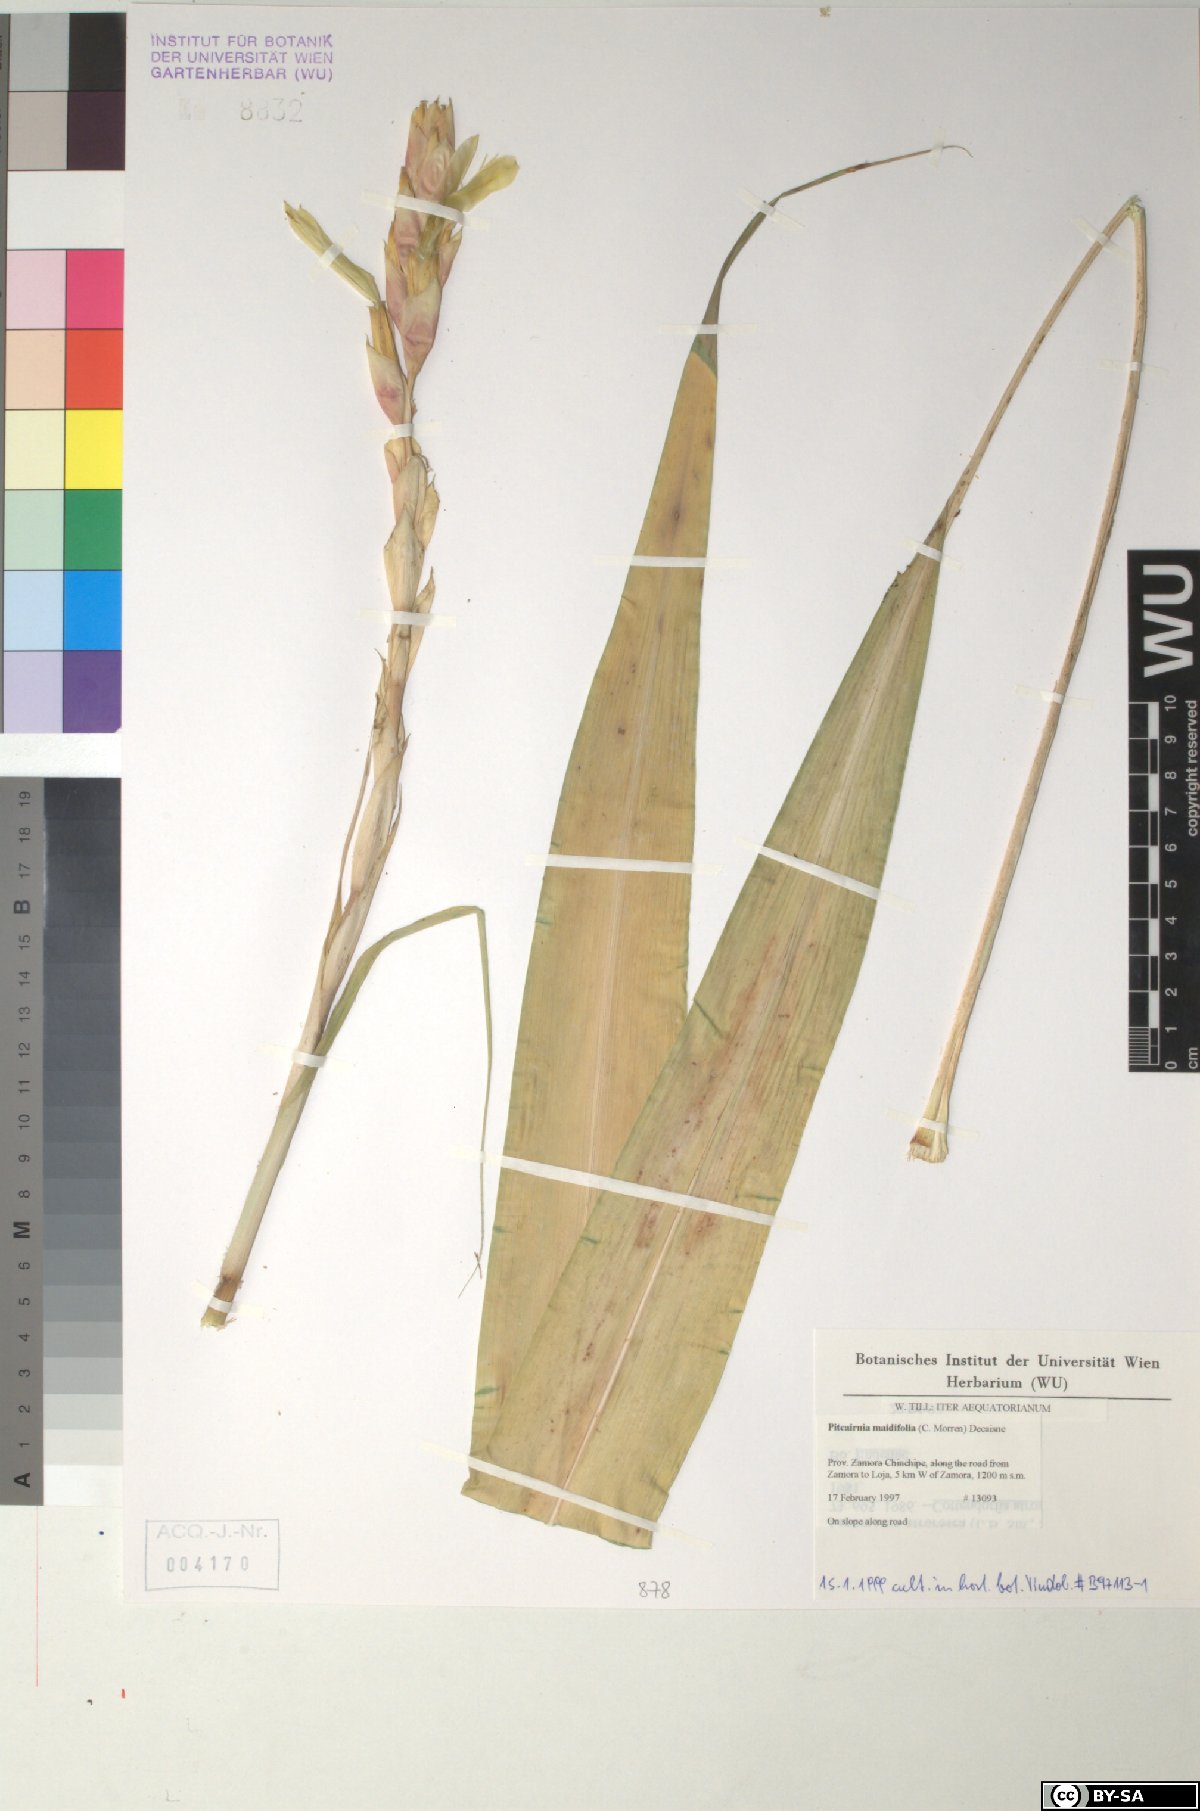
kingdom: Plantae
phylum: Tracheophyta
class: Liliopsida
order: Poales
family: Bromeliaceae
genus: Pitcairnia
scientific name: Pitcairnia maidifolia
